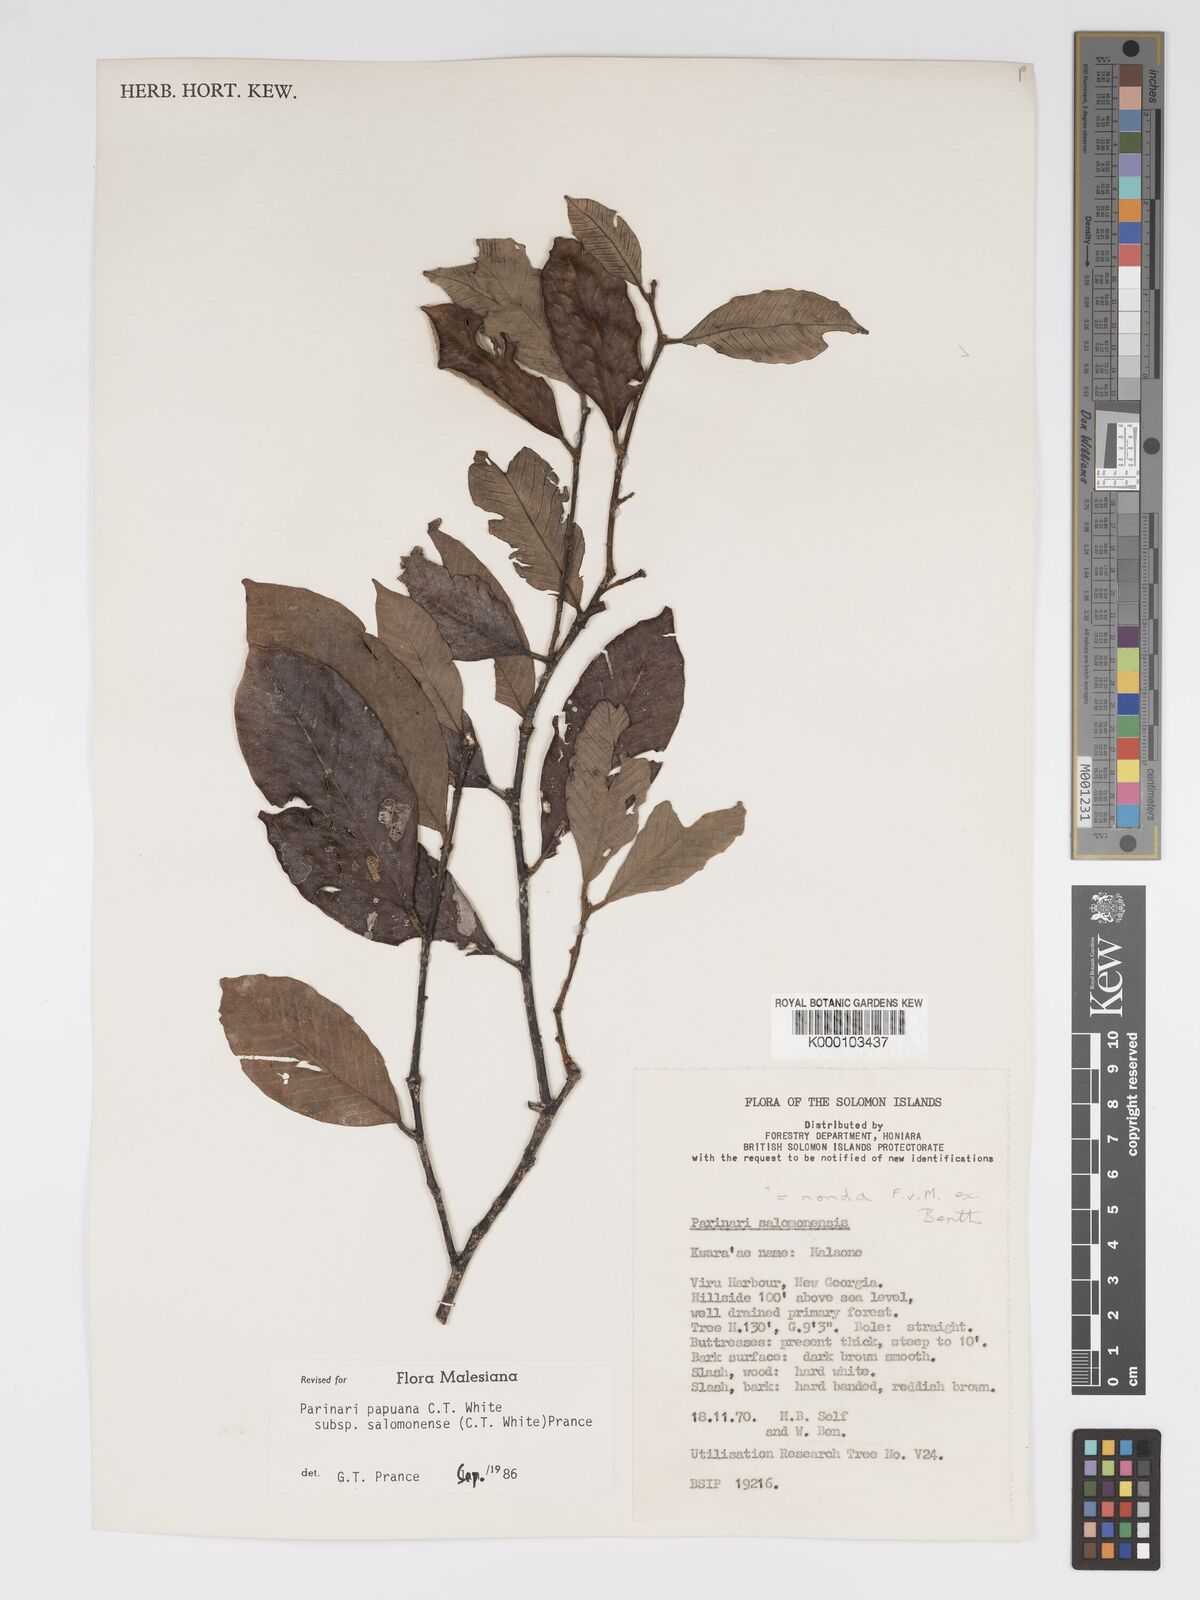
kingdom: Plantae
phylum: Tracheophyta
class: Magnoliopsida
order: Malpighiales
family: Chrysobalanaceae
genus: Parinari
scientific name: Parinari papuana
